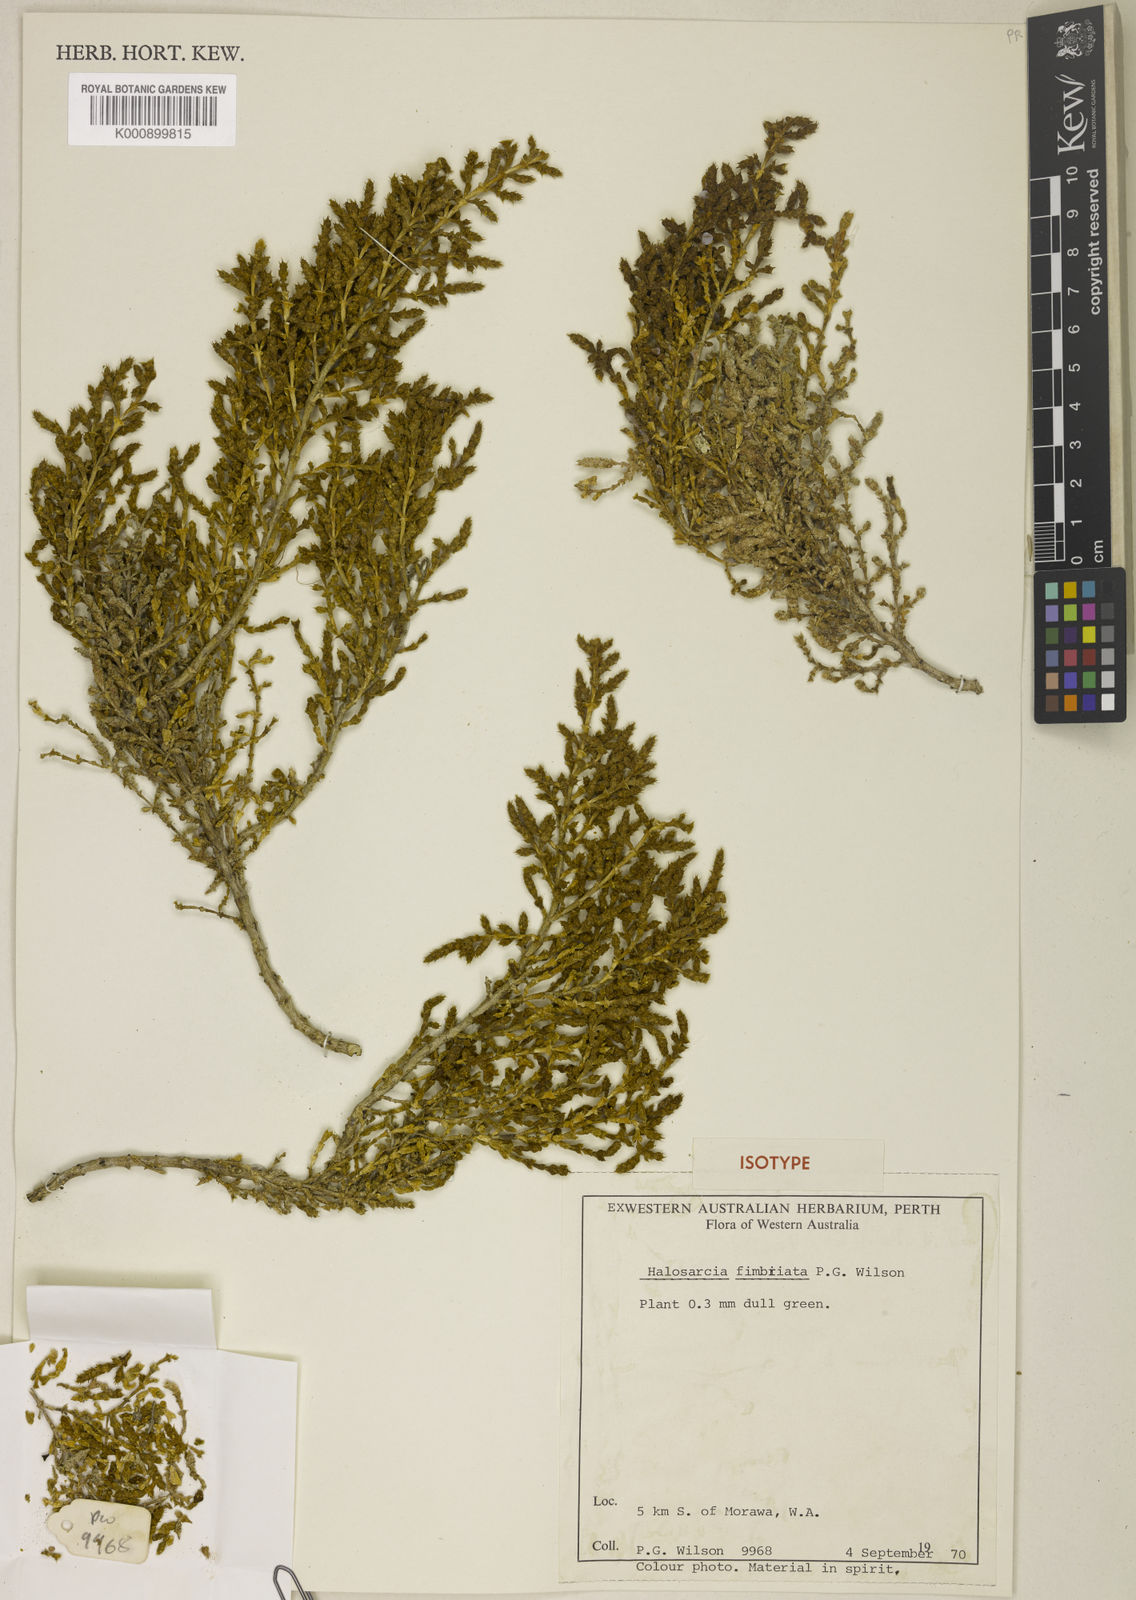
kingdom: Plantae
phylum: Tracheophyta
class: Magnoliopsida
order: Caryophyllales
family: Amaranthaceae
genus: Tecticornia
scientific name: Tecticornia fimbriata
